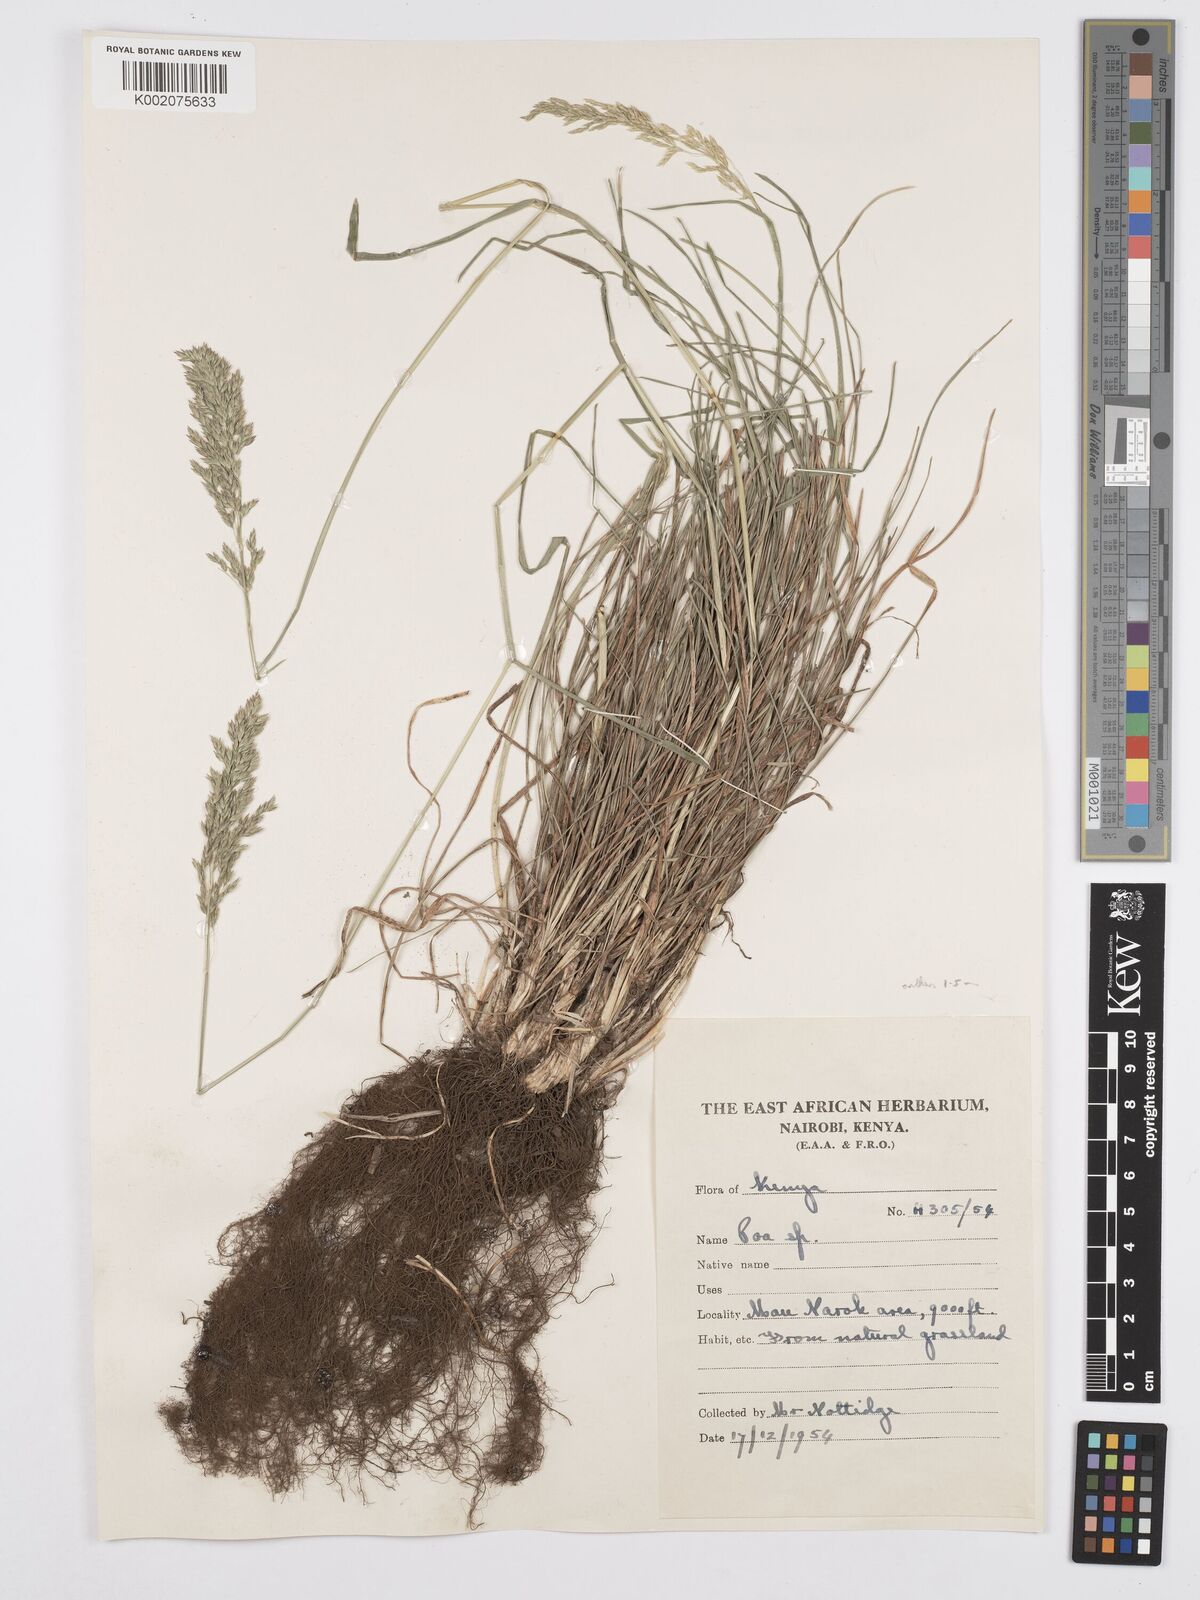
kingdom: Plantae
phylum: Tracheophyta
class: Liliopsida
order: Poales
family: Poaceae
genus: Poa
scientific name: Poa
